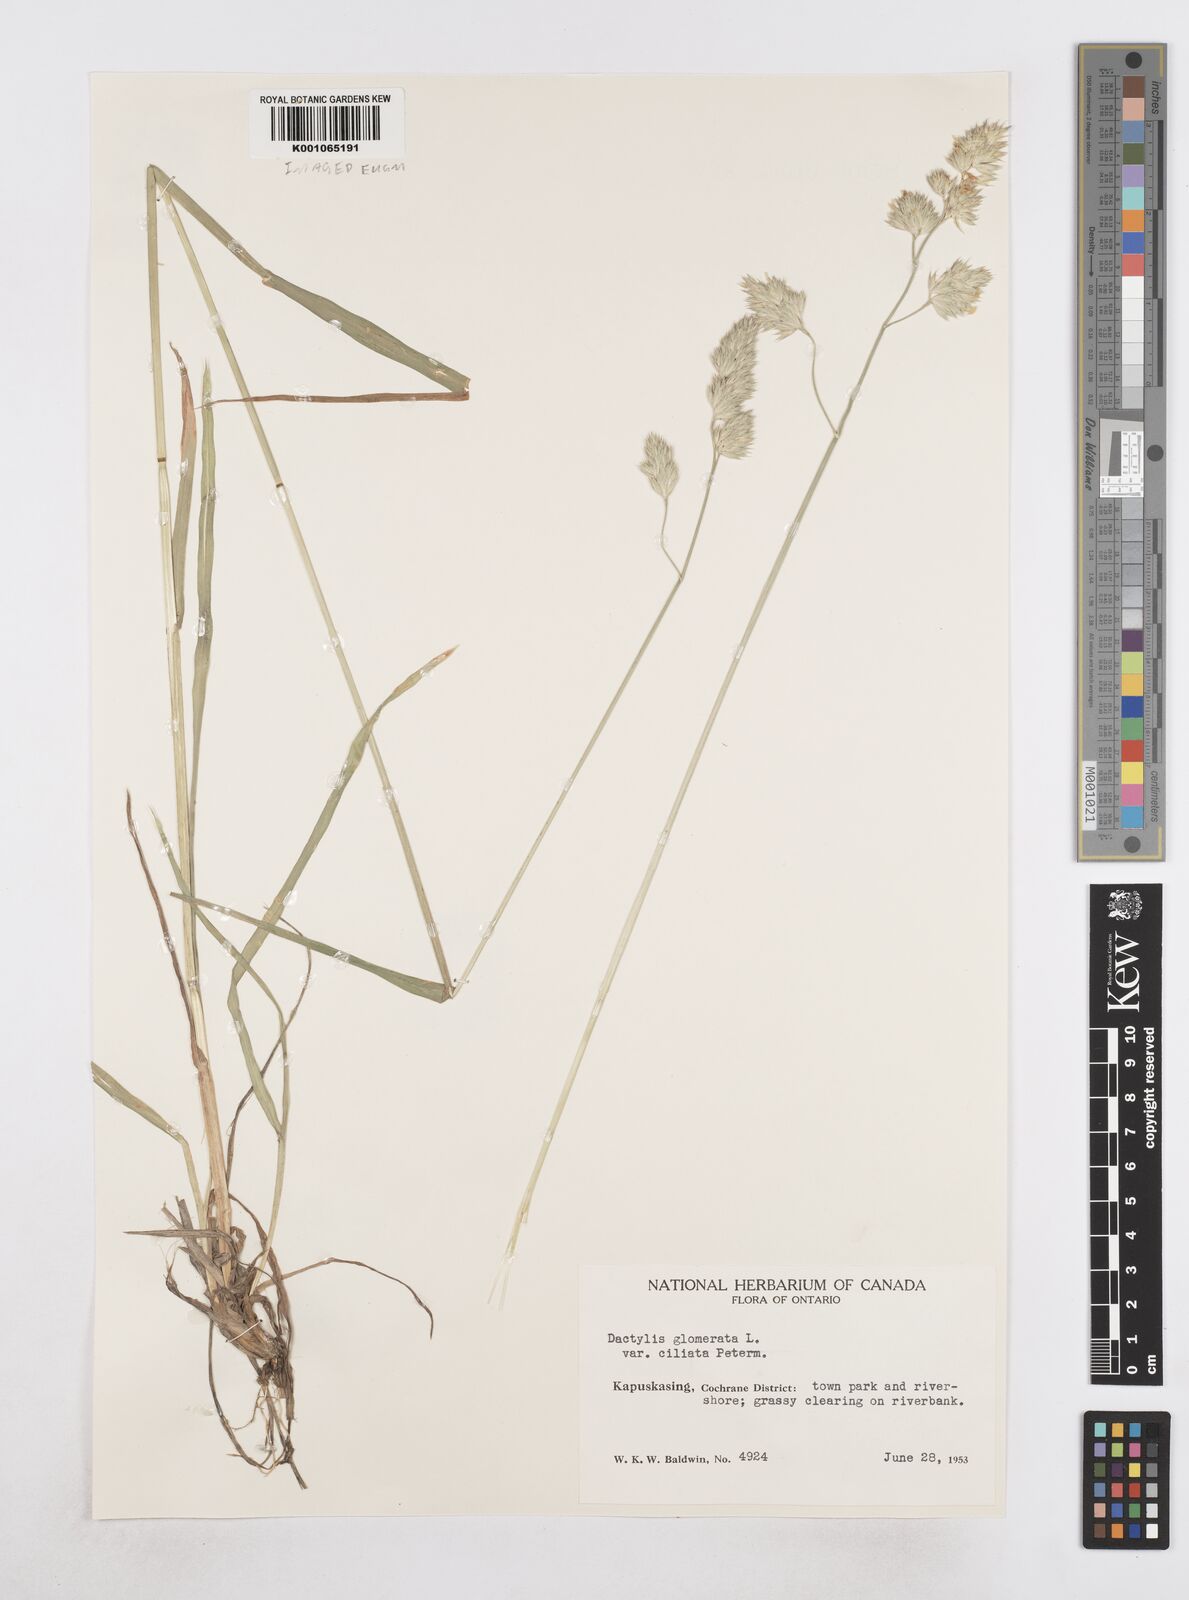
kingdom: Plantae
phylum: Tracheophyta
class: Liliopsida
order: Poales
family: Poaceae
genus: Dactylis
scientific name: Dactylis glomerata
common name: Orchardgrass
